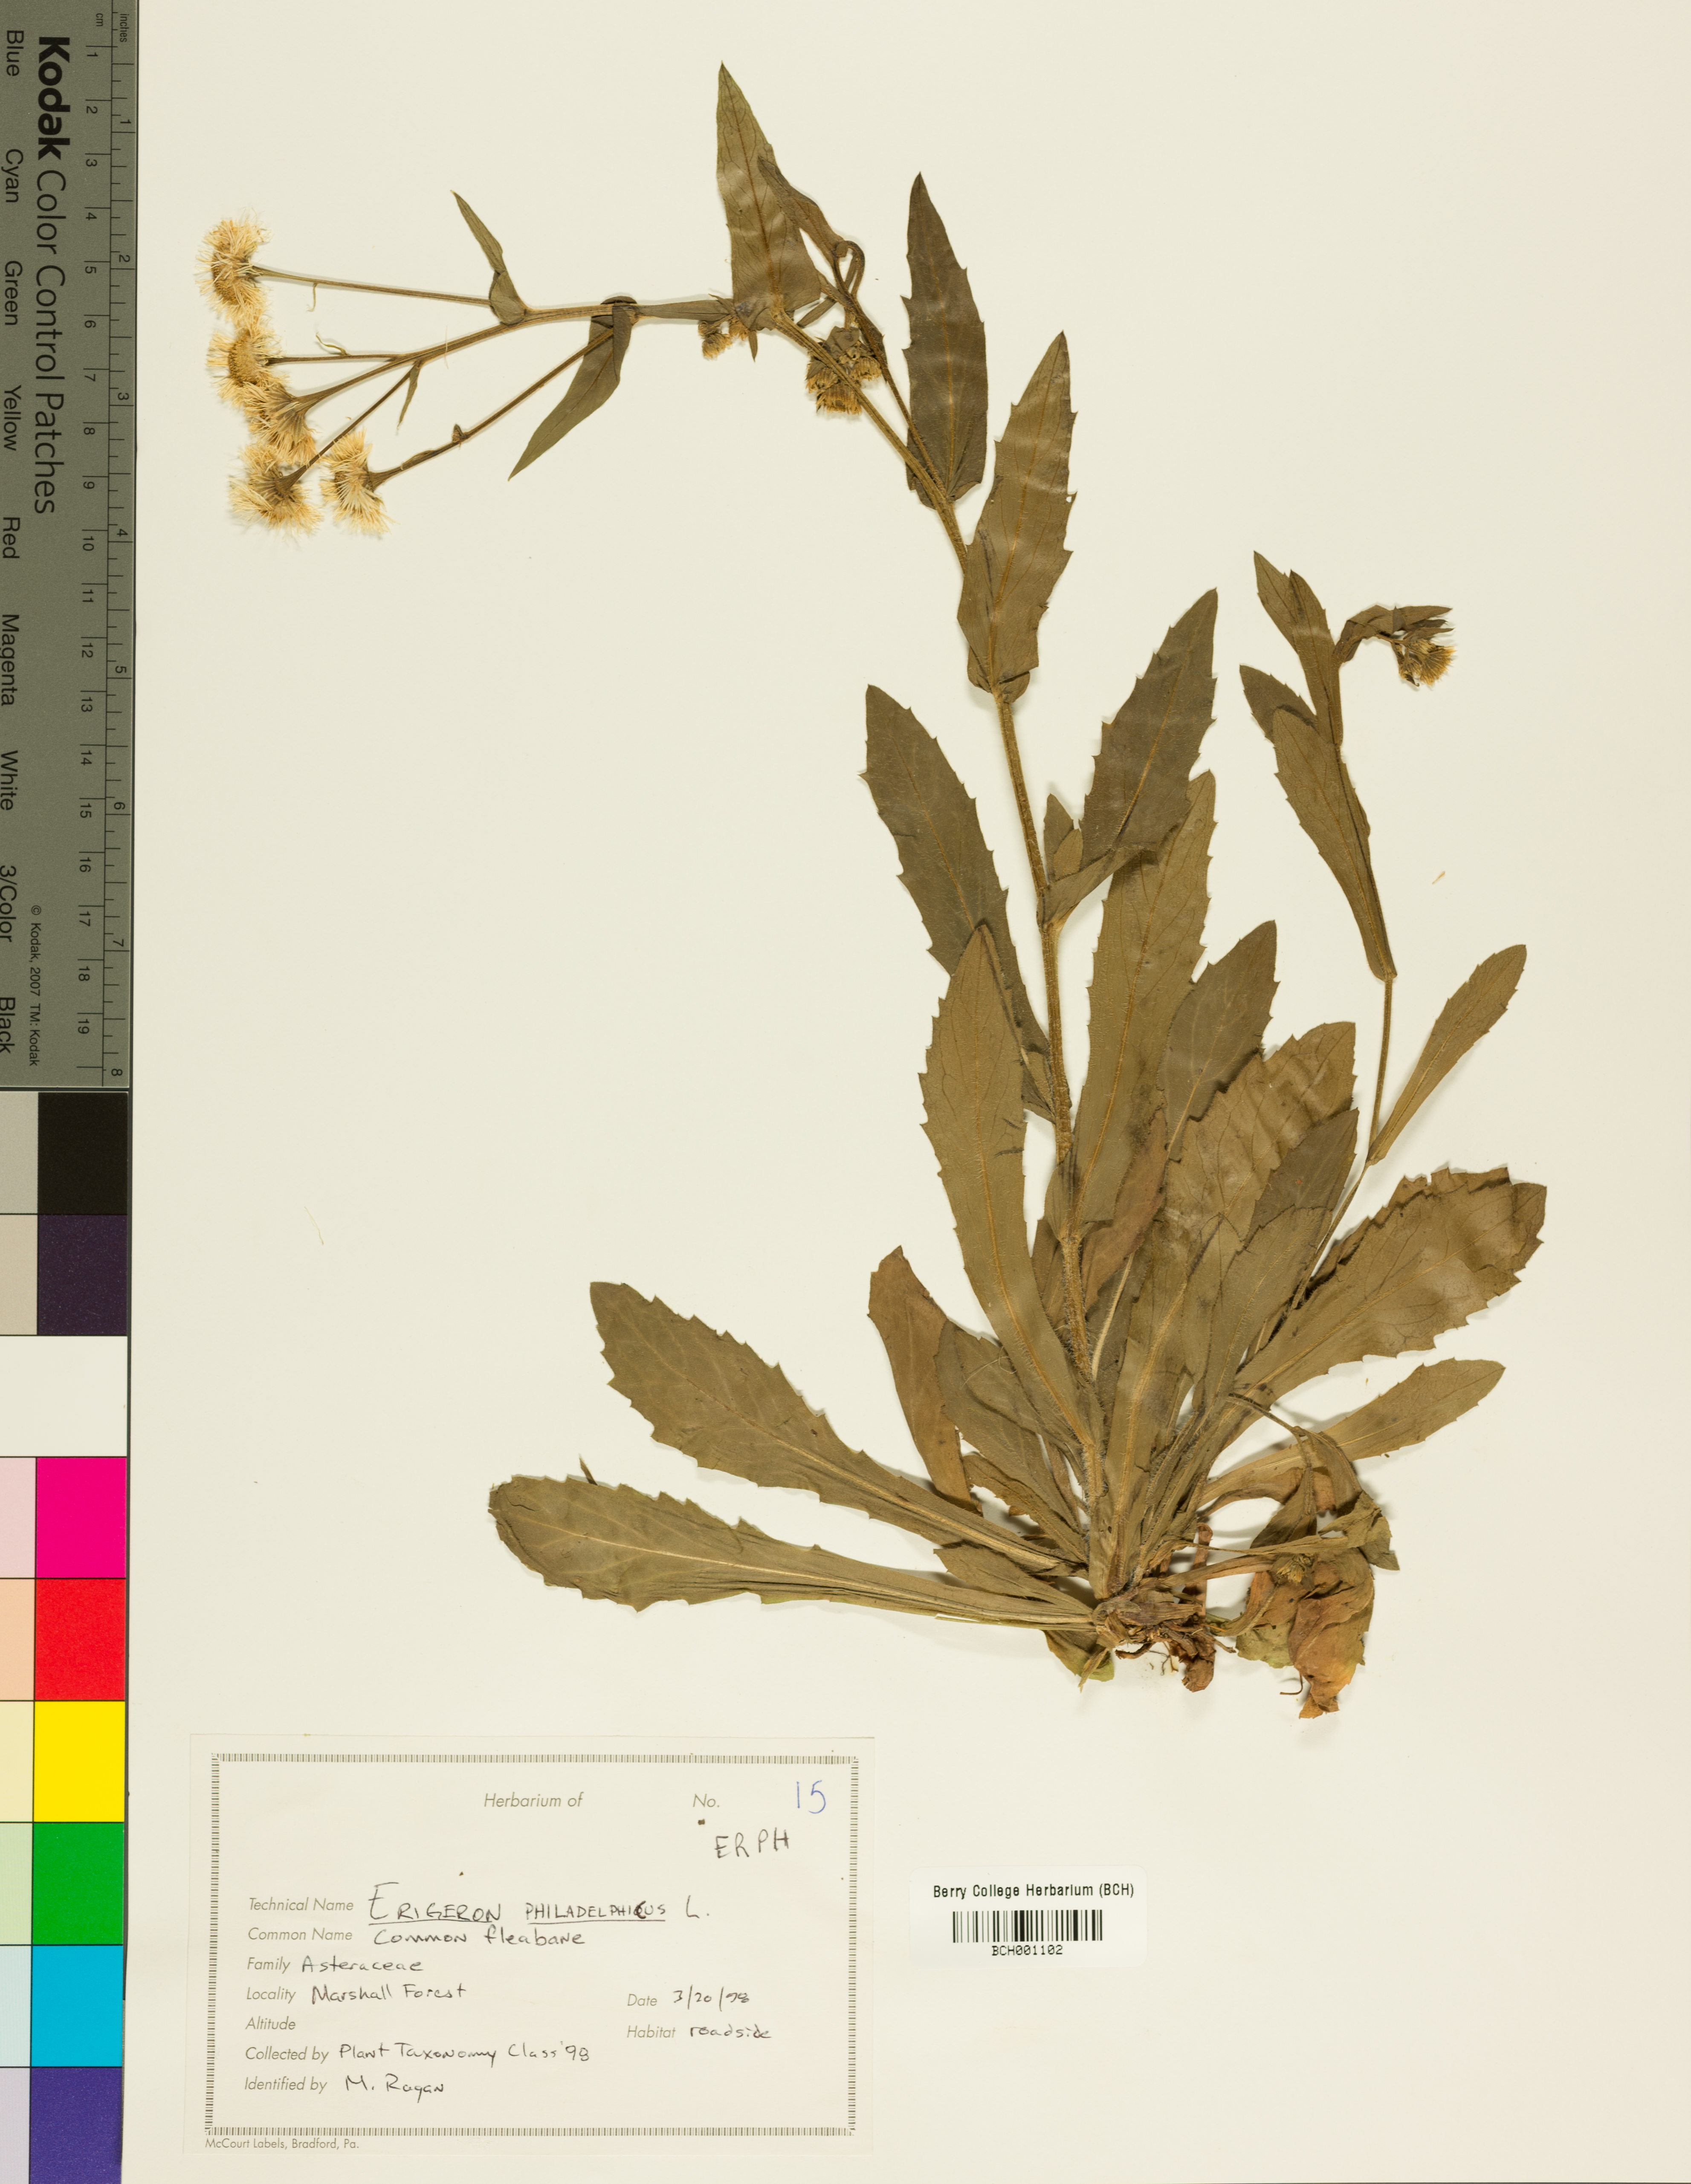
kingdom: Plantae
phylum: Tracheophyta
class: Magnoliopsida
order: Asterales
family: Asteraceae
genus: Erigeron
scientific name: Erigeron philadelphicus
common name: Robin's-plantain
